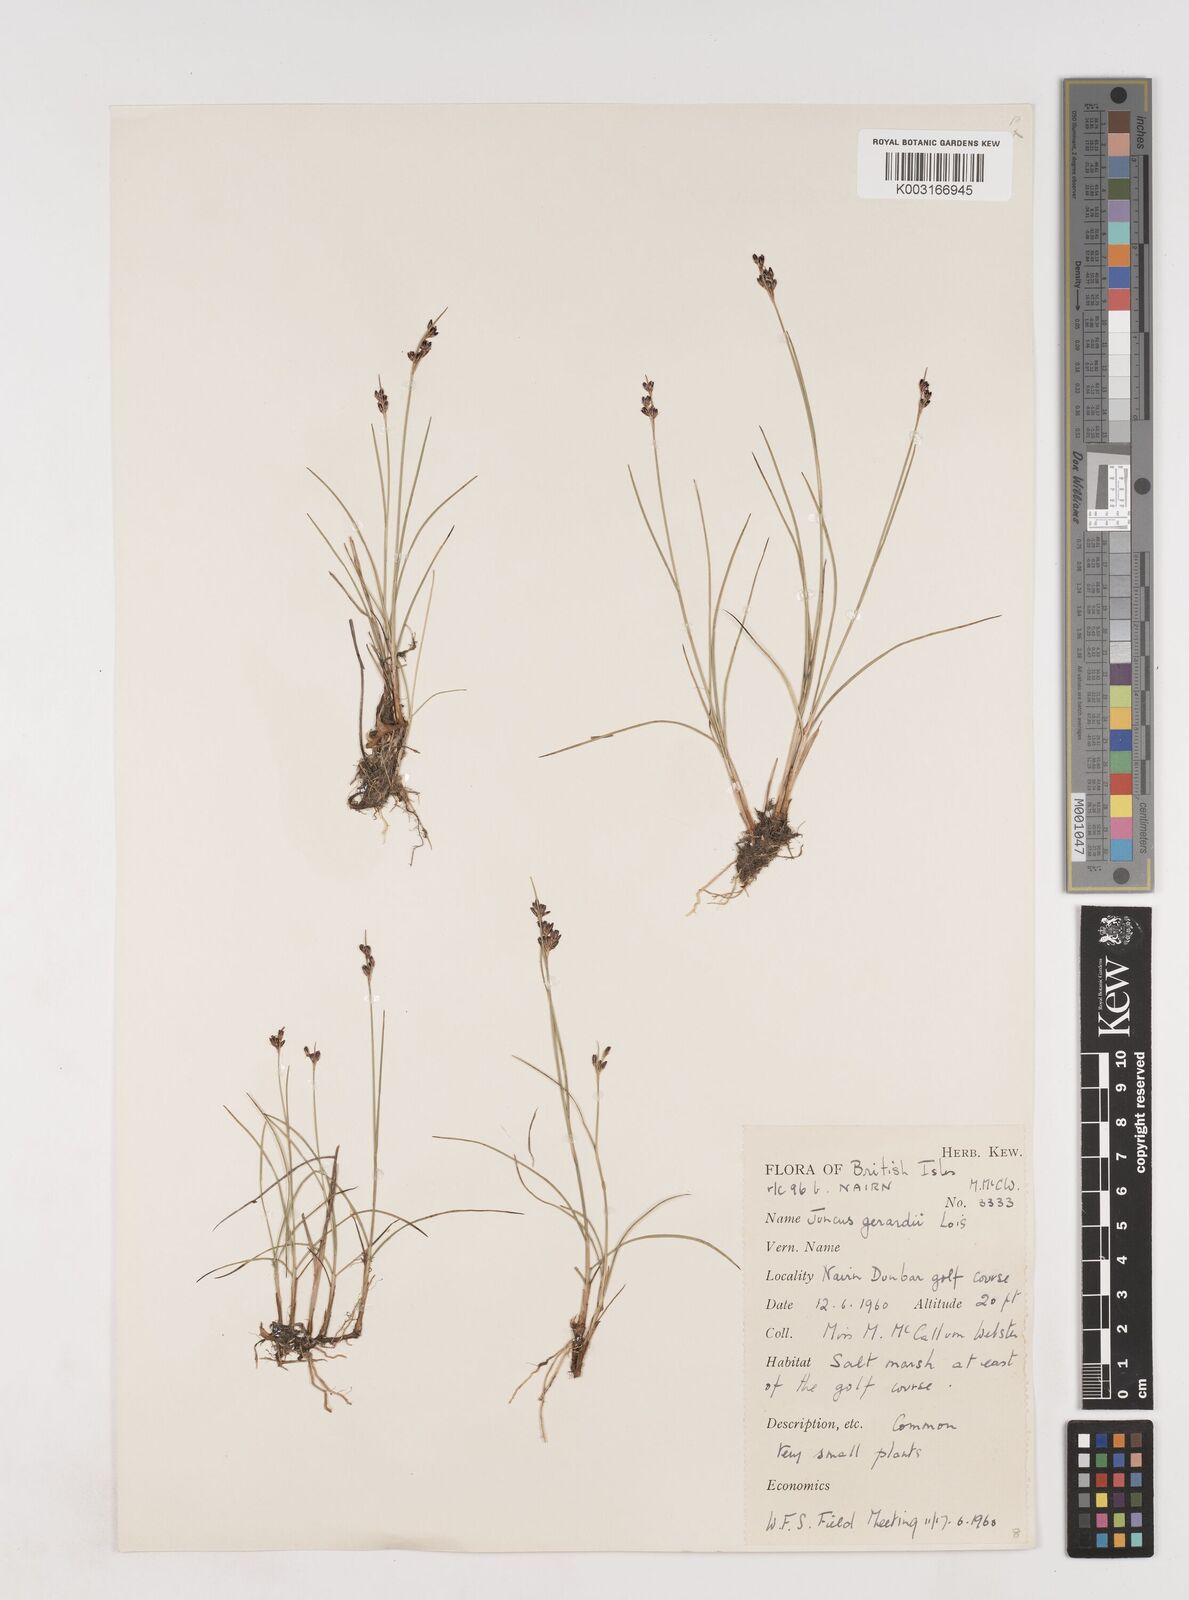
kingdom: Plantae
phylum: Tracheophyta
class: Liliopsida
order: Poales
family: Juncaceae
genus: Juncus
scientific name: Juncus gerardi
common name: Saltmarsh rush
